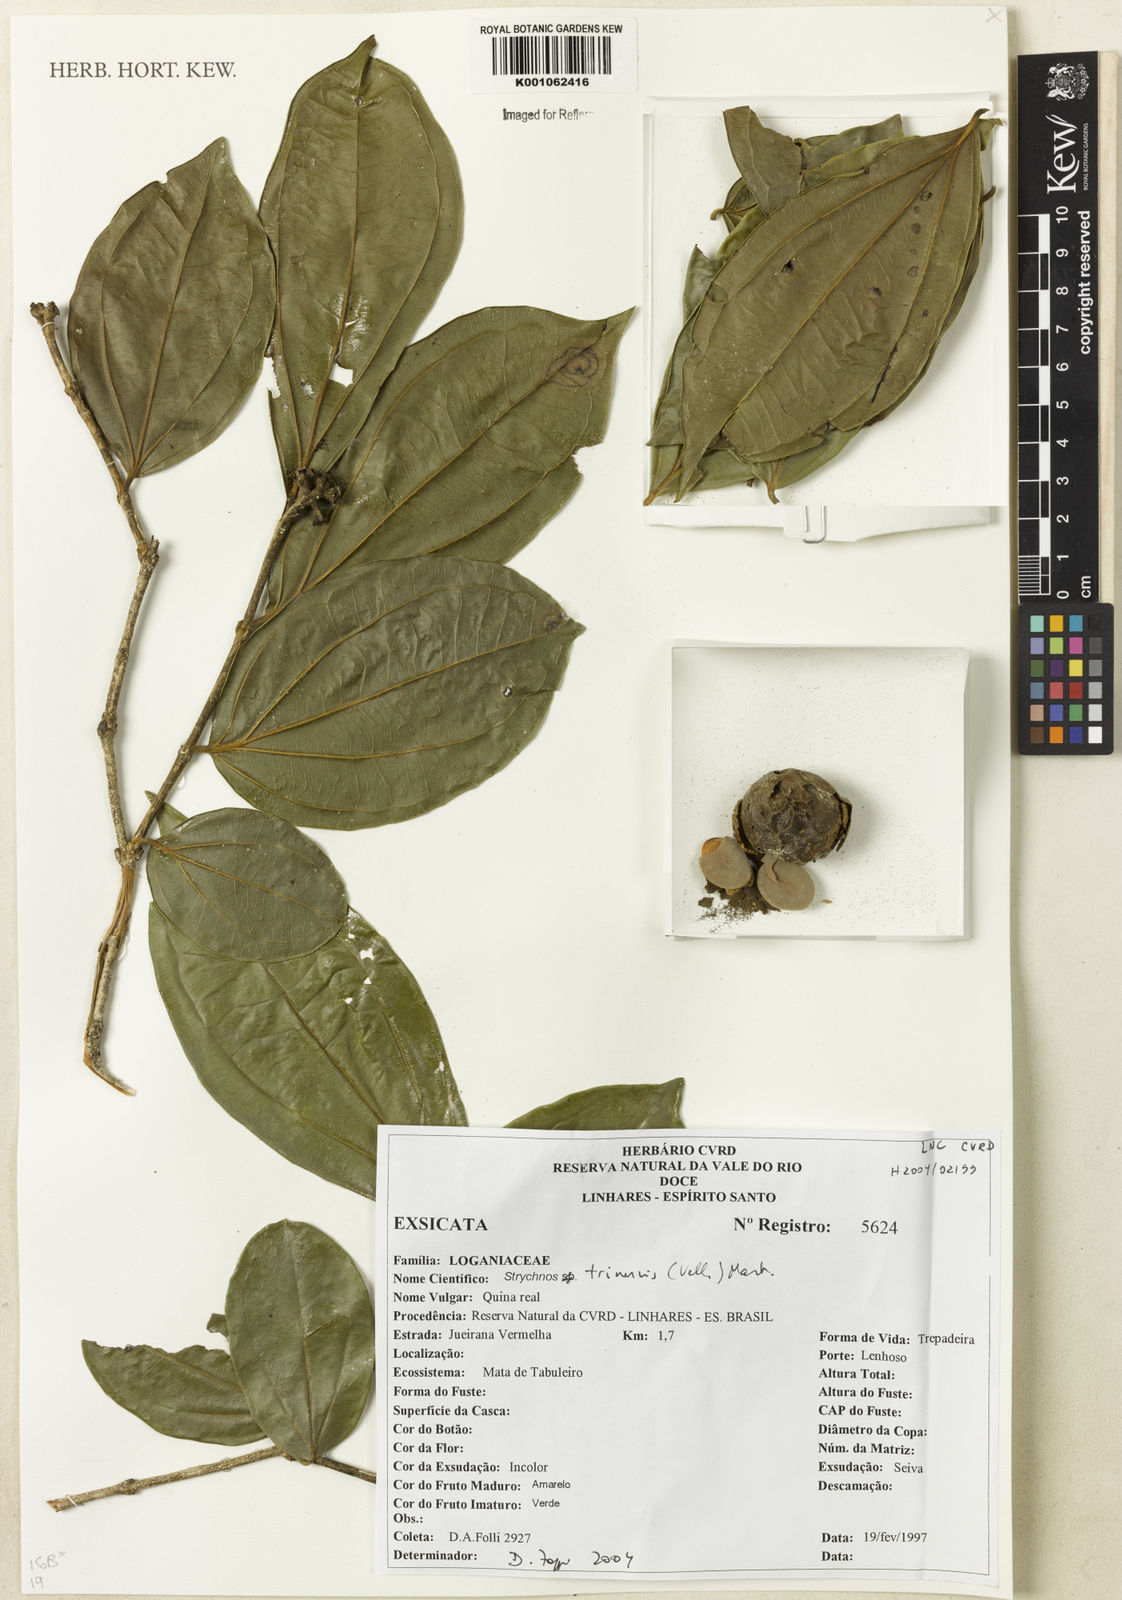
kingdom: Plantae
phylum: Tracheophyta
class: Magnoliopsida
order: Gentianales
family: Loganiaceae
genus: Strychnos
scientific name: Strychnos
